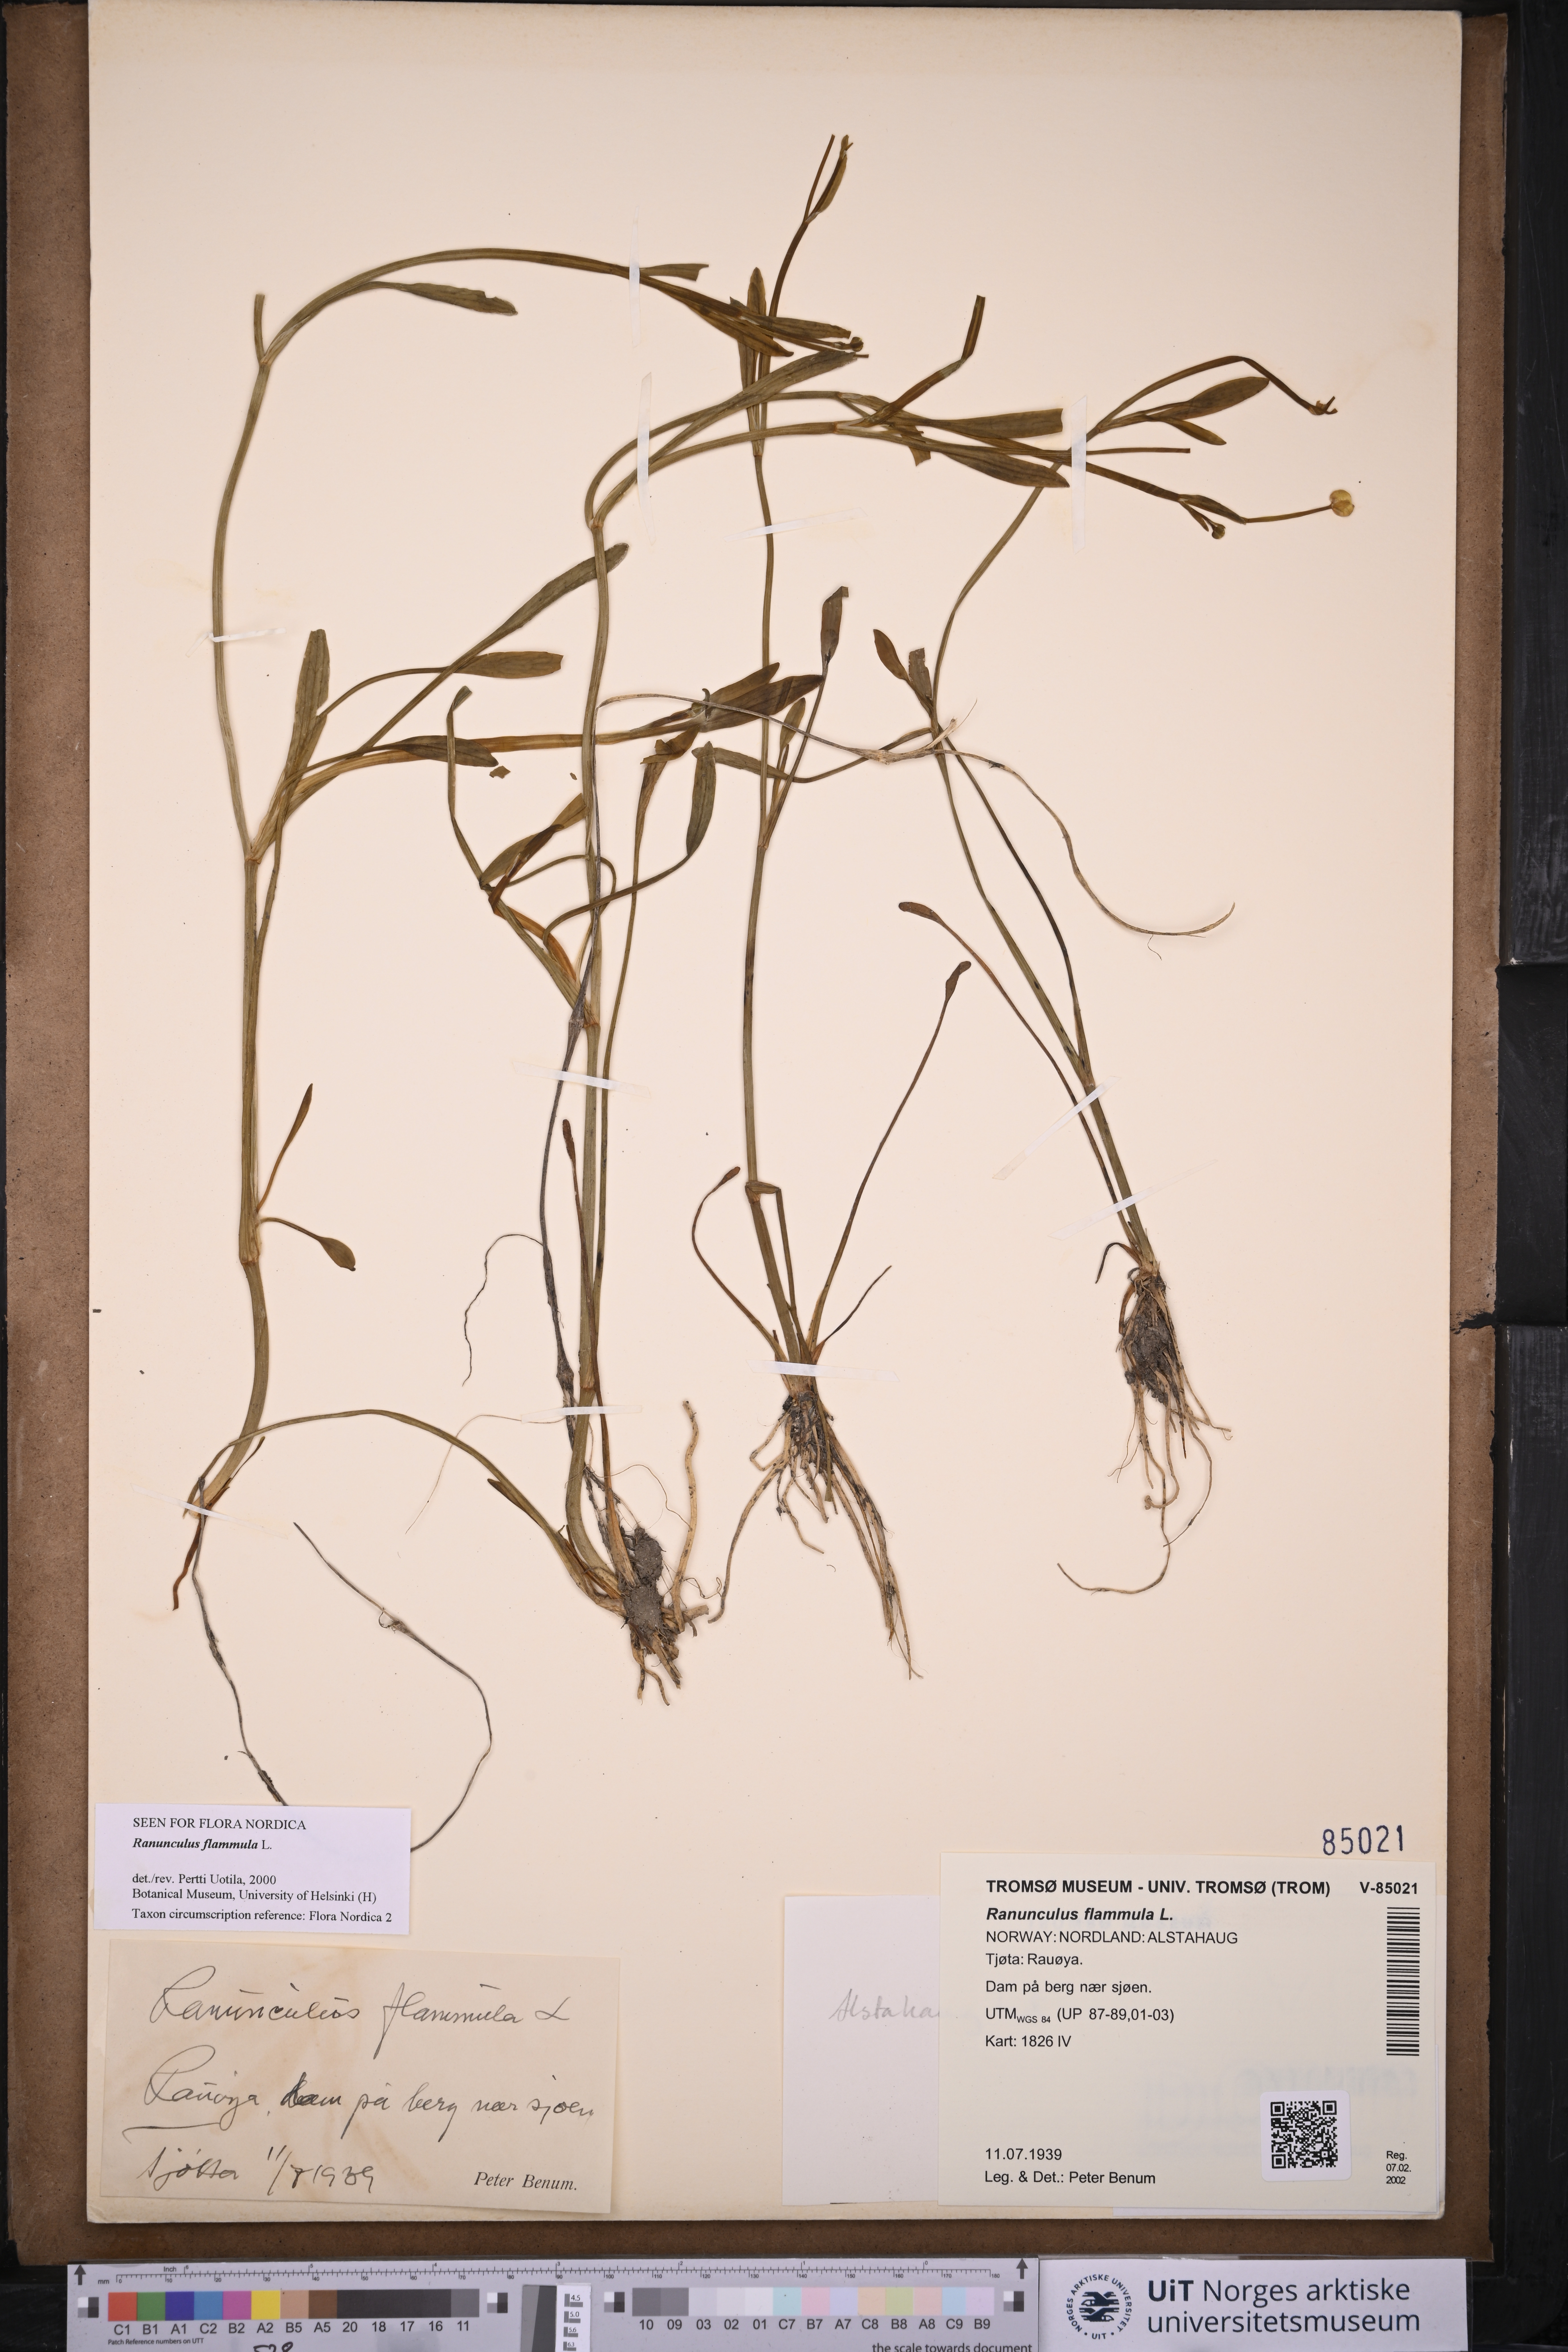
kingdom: Plantae
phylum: Tracheophyta
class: Magnoliopsida
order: Ranunculales
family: Ranunculaceae
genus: Ranunculus
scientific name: Ranunculus flammula
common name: Lesser spearwort
